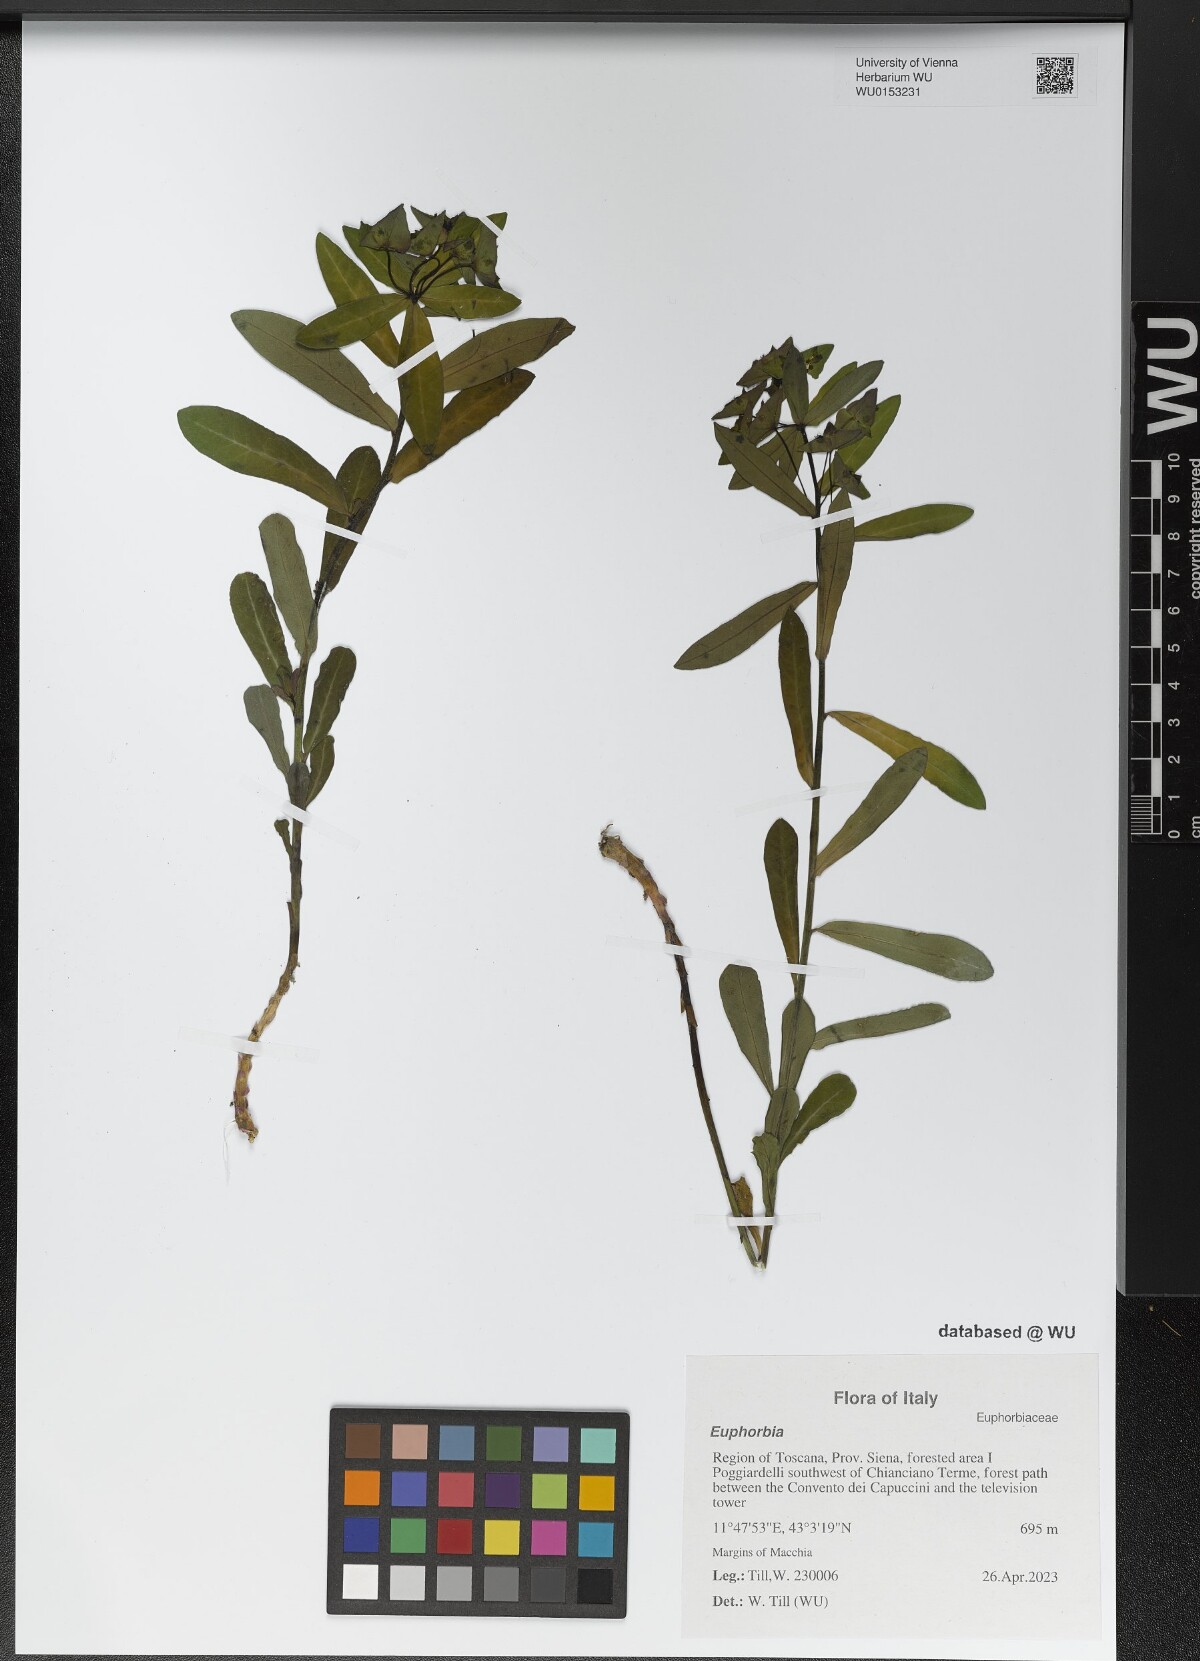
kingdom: Plantae
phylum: Tracheophyta
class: Magnoliopsida
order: Malpighiales
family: Euphorbiaceae
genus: Euphorbia
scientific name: Euphorbia
